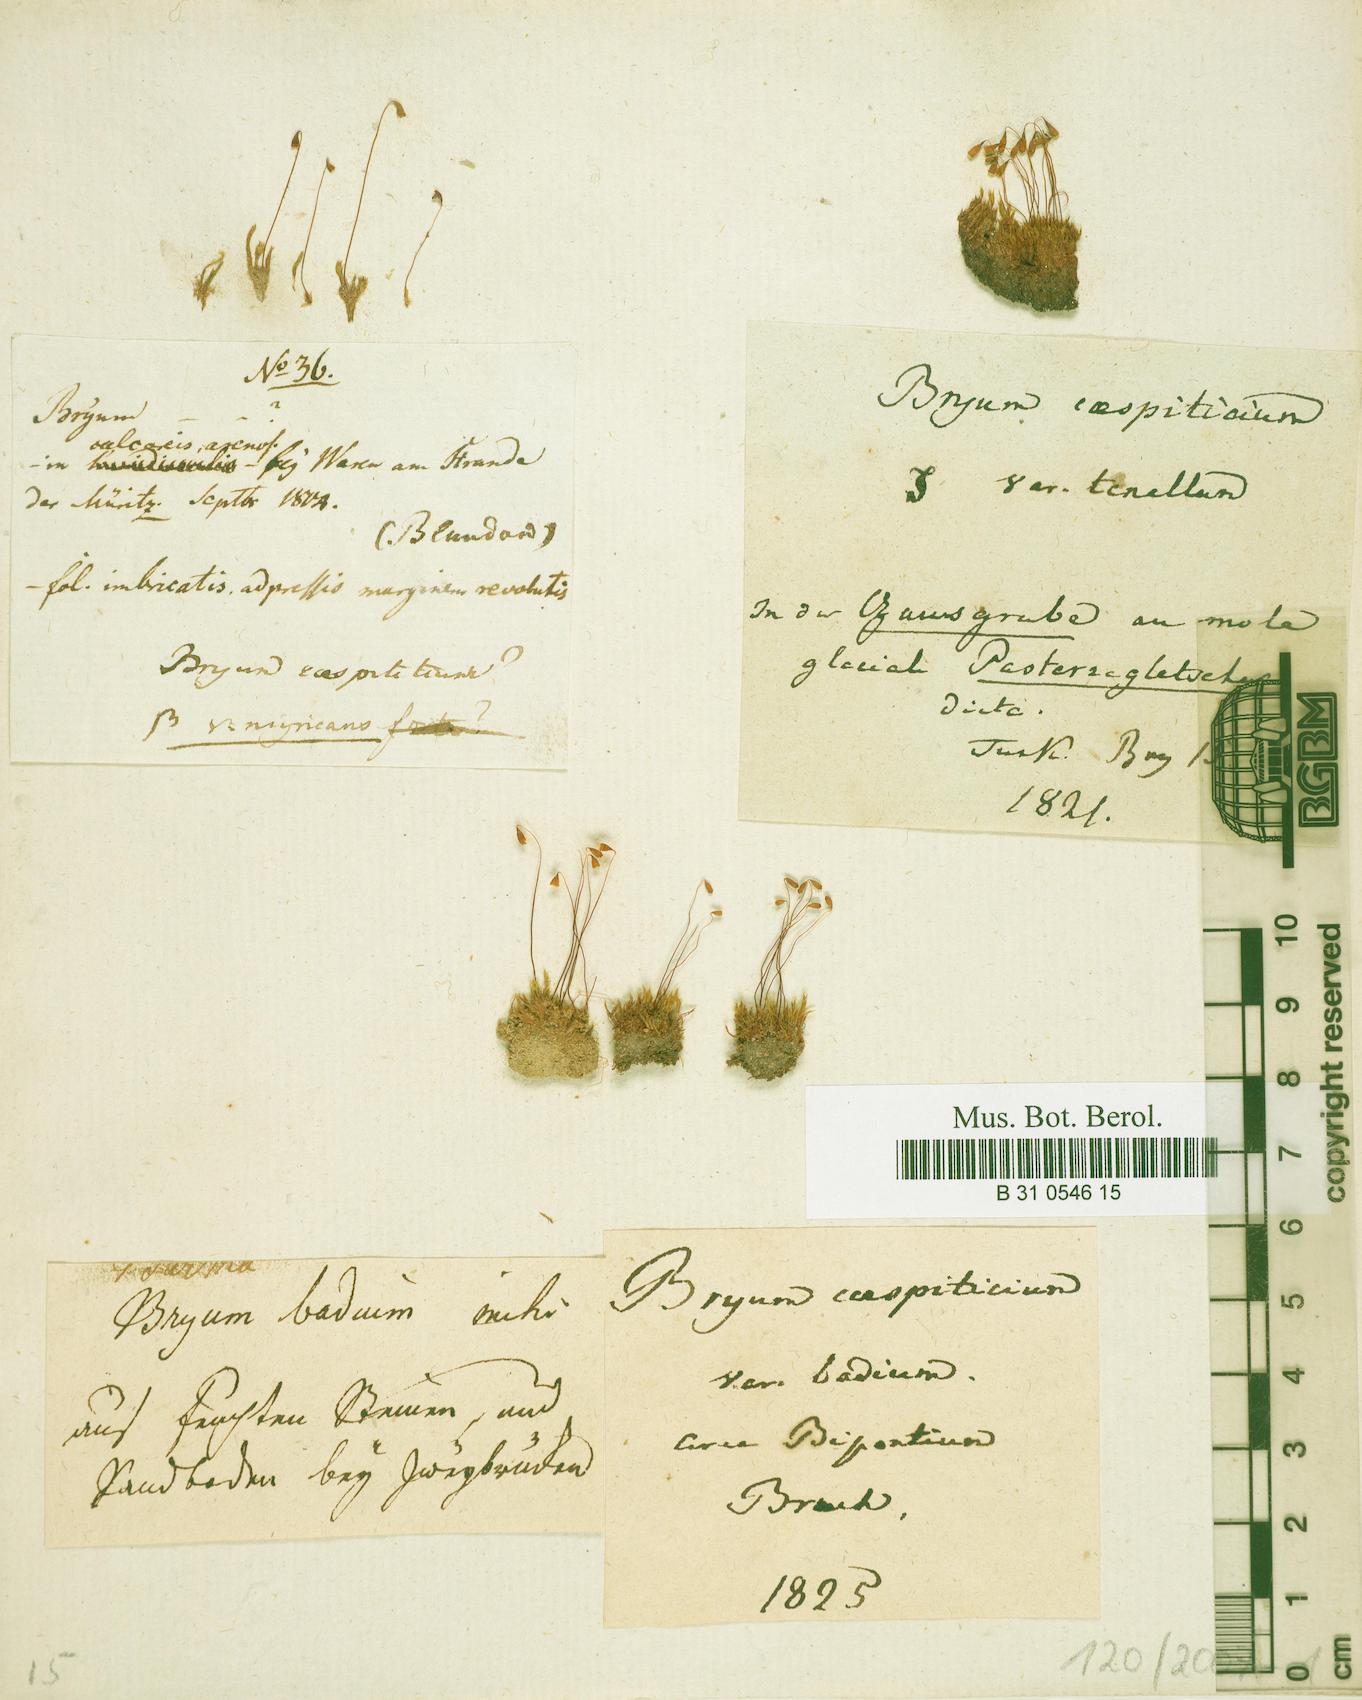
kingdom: Plantae
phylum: Bryophyta
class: Bryopsida
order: Bryales
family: Bryaceae
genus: Gemmabryum
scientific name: Gemmabryum caespiticium
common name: Handbell moss
